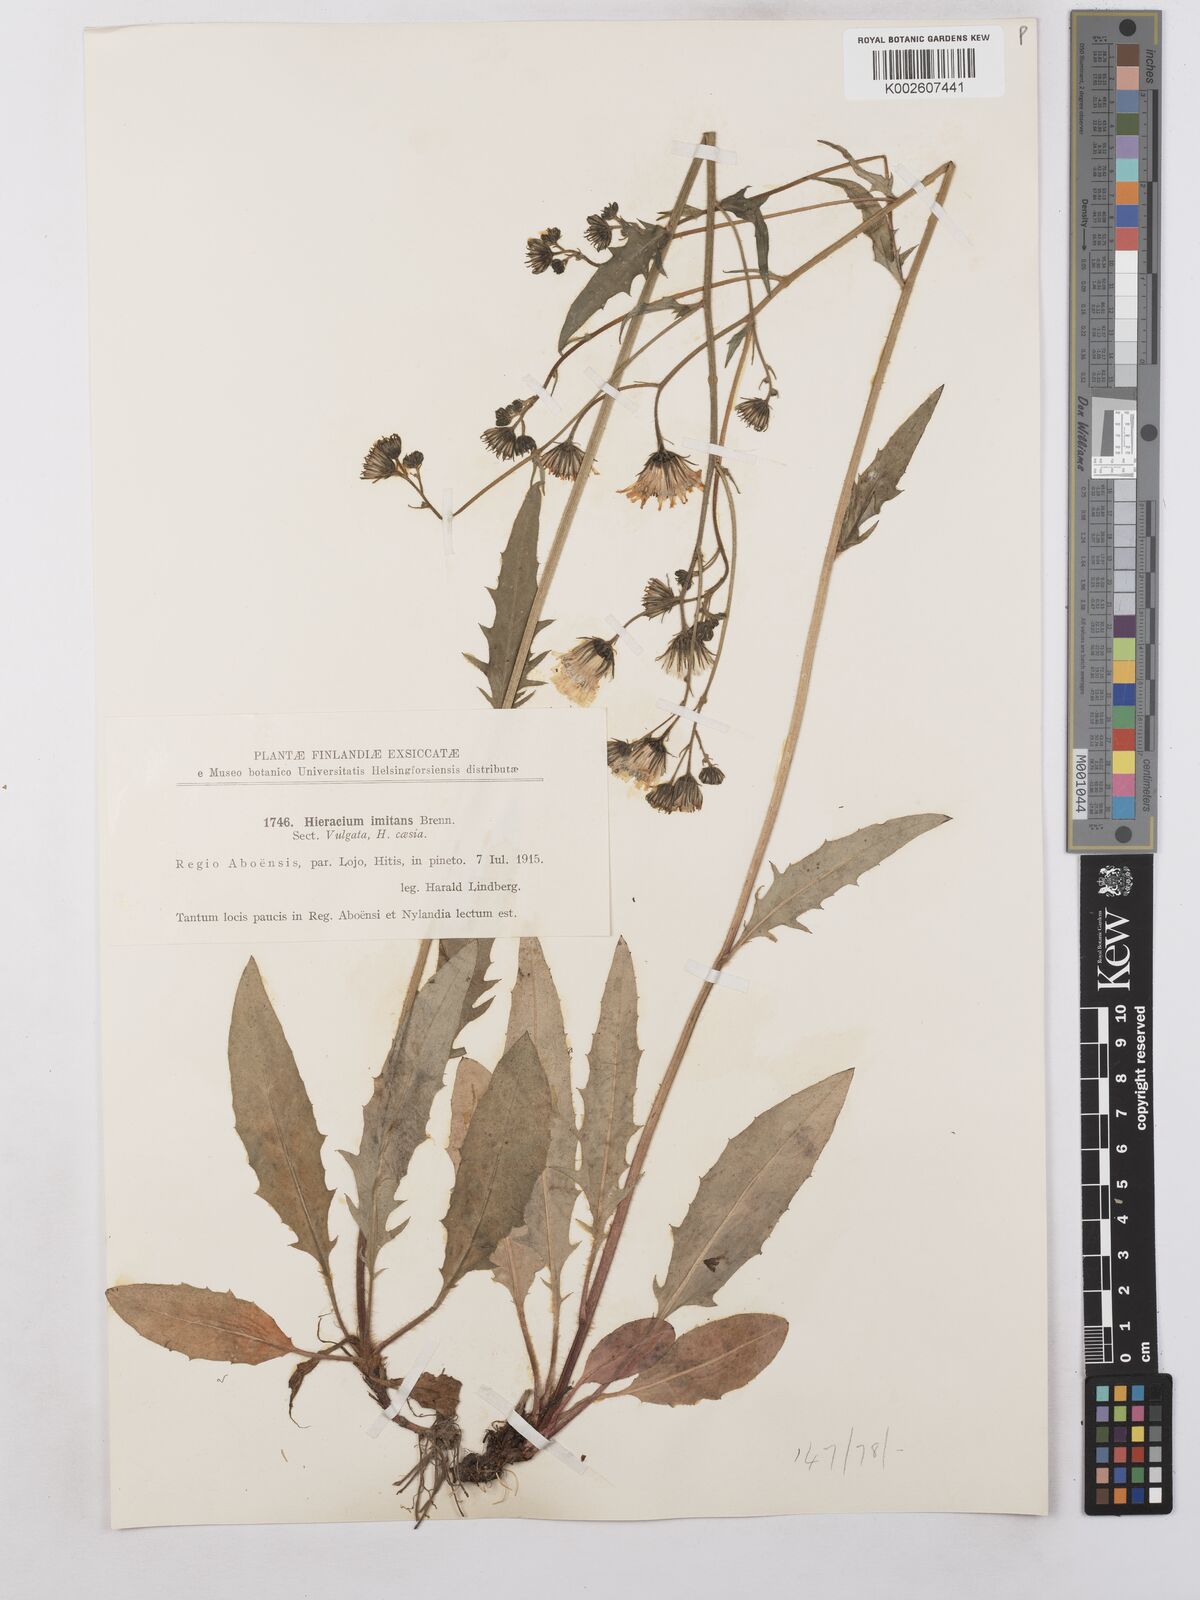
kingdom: Plantae
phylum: Tracheophyta
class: Magnoliopsida
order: Asterales
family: Asteraceae
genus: Hieracium
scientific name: Hieracium caesium
